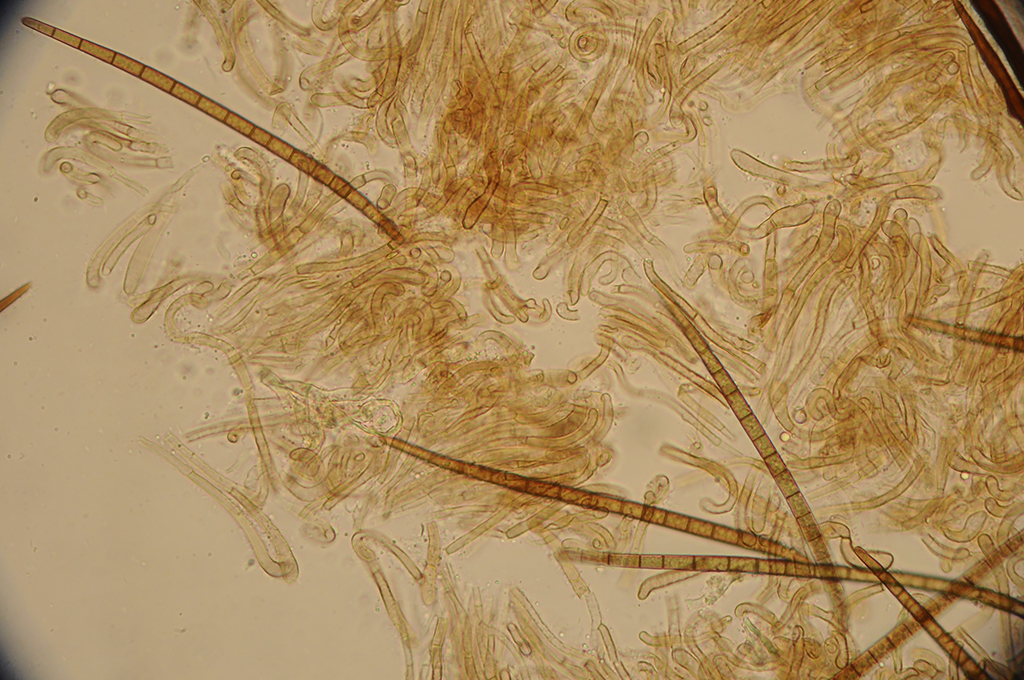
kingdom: Fungi
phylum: Ascomycota
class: Geoglossomycetes
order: Geoglossales
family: Geoglossaceae
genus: Trichoglossum
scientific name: Trichoglossum hirsutum
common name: håret jordtunge
